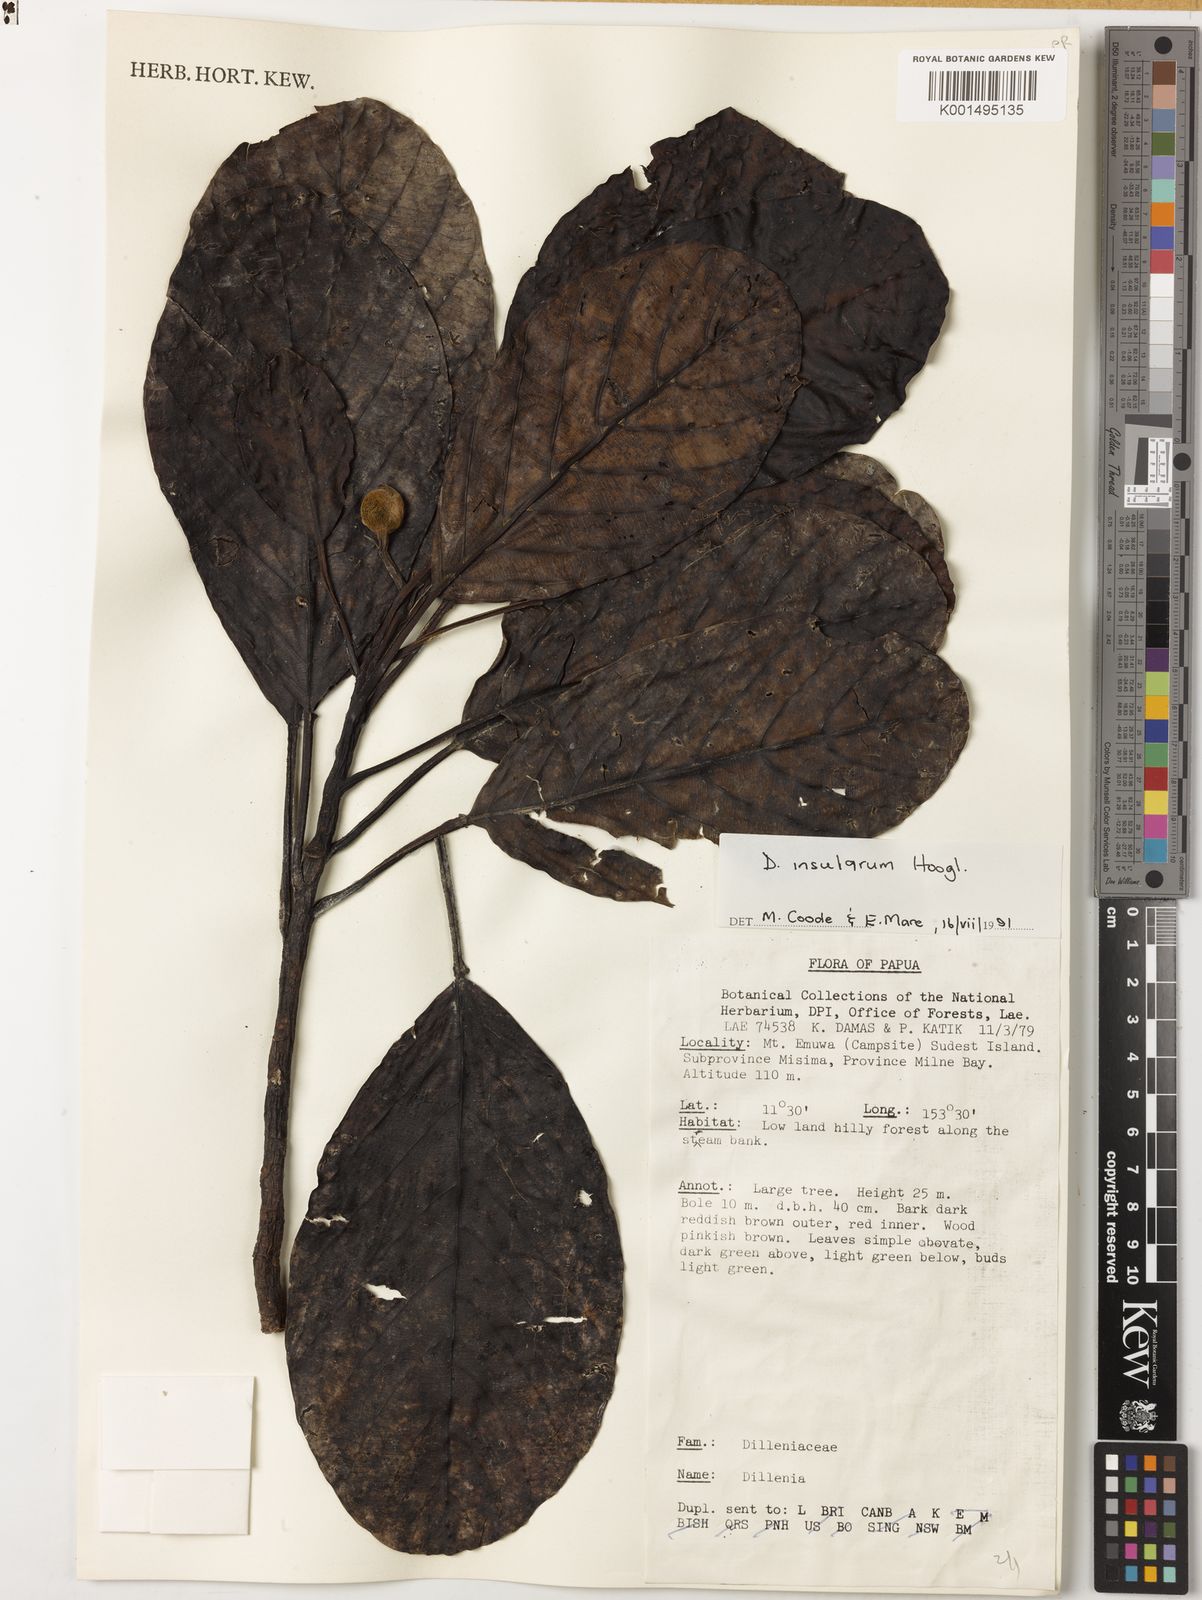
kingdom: Plantae
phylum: Tracheophyta
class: Magnoliopsida
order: Dilleniales
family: Dilleniaceae
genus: Dillenia
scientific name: Dillenia insularum
